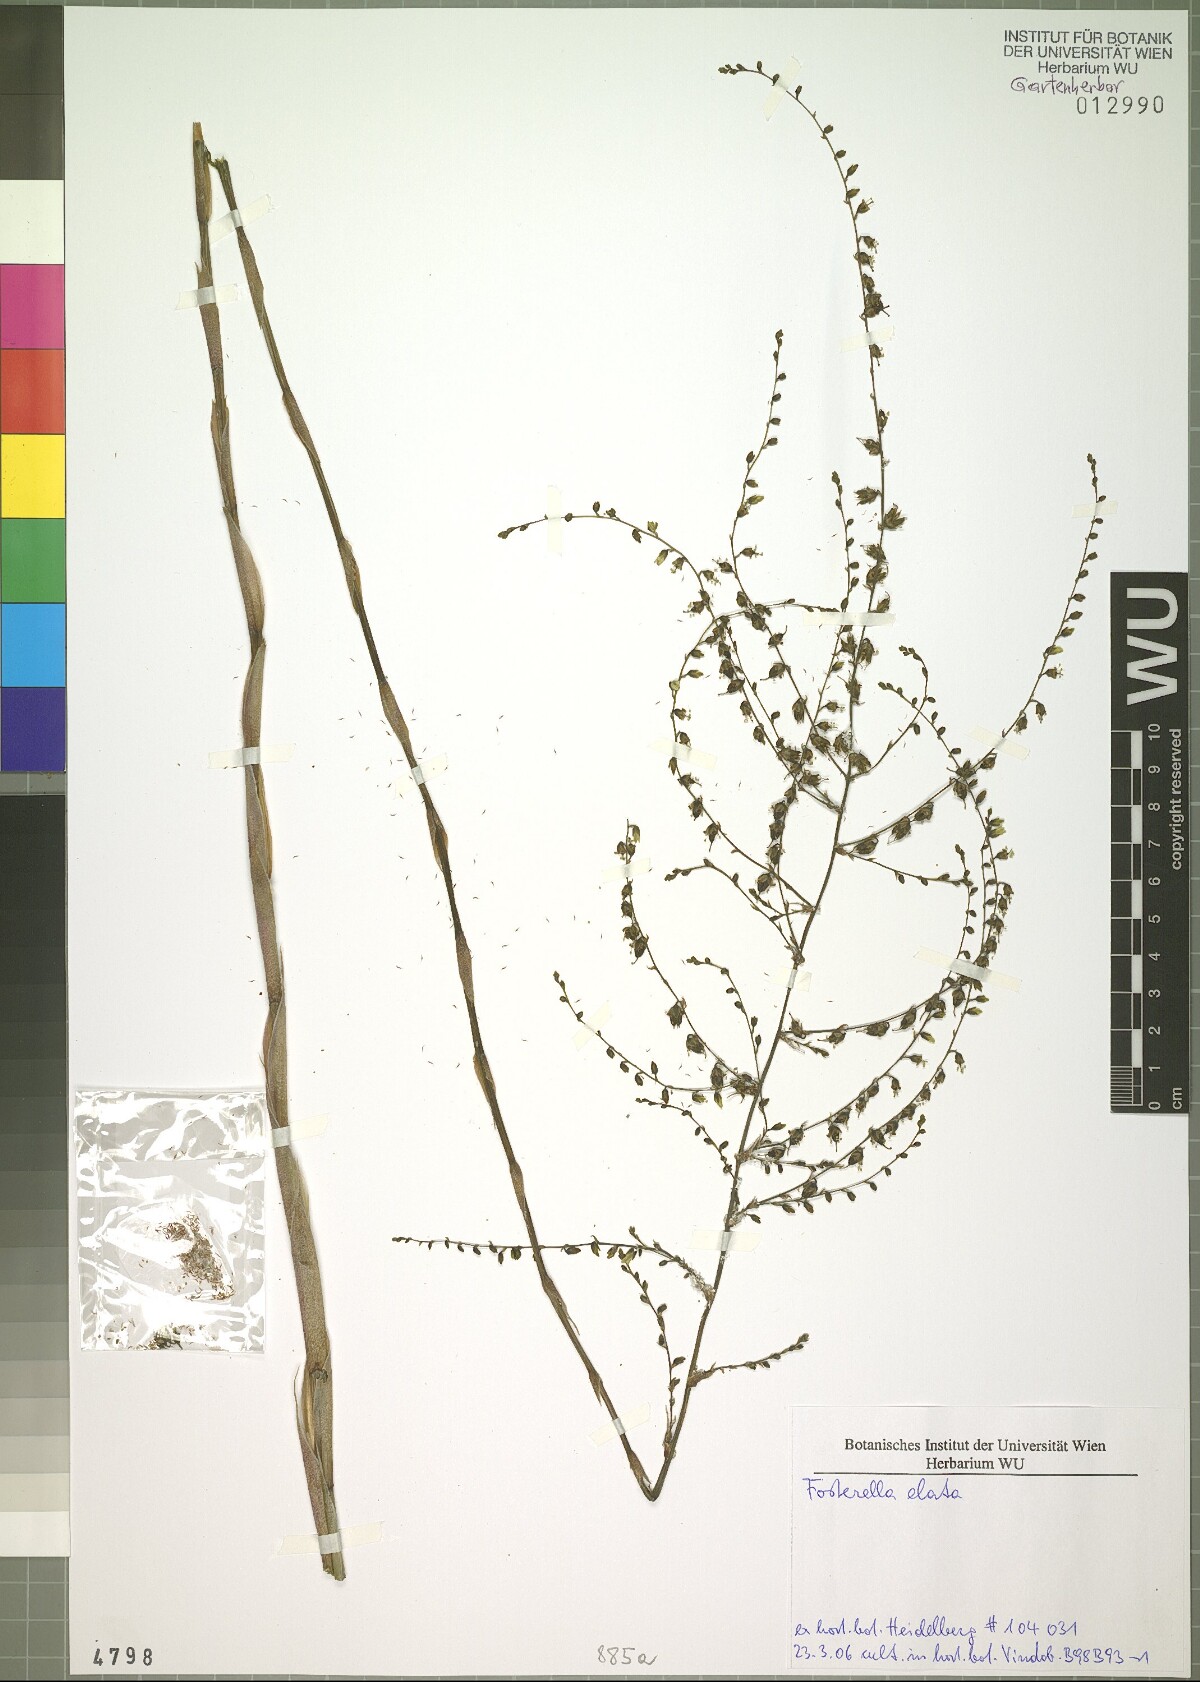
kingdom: Plantae
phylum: Tracheophyta
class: Liliopsida
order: Poales
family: Bromeliaceae
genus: Fosterella
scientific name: Fosterella rusbyi
